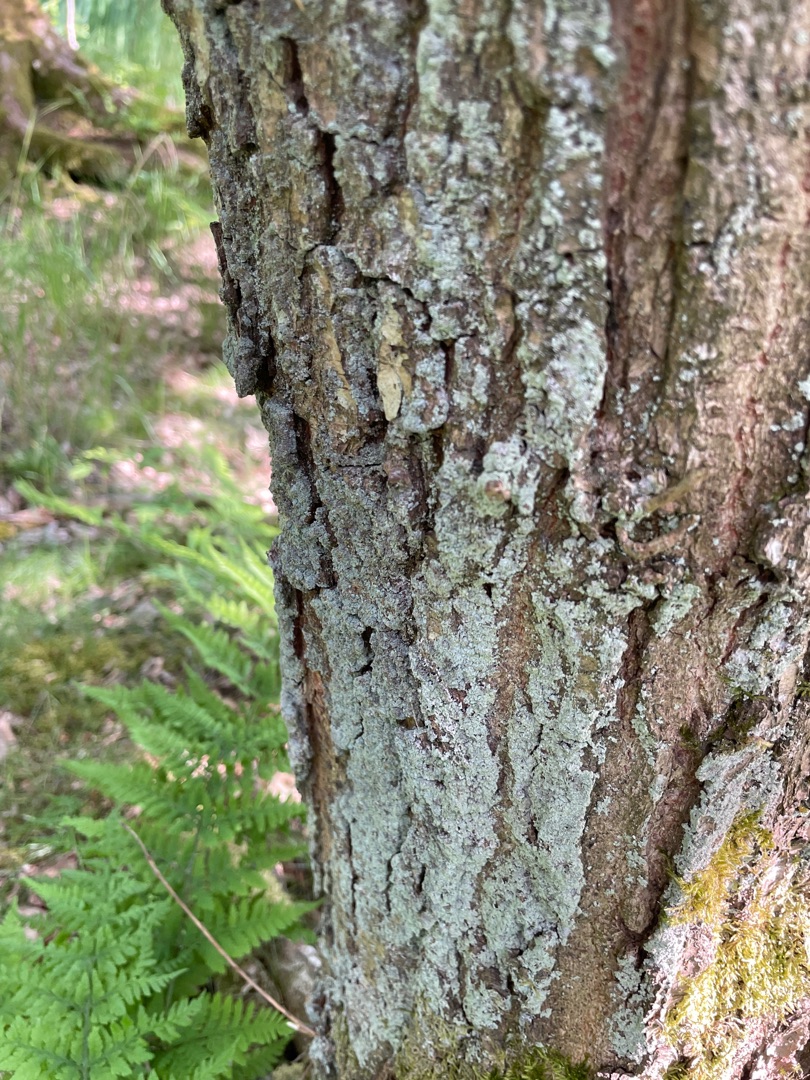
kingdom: Fungi
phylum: Ascomycota
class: Lecanoromycetes
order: Lecanorales
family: Stereocaulaceae
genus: Lepraria
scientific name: Lepraria
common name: Støvlav
